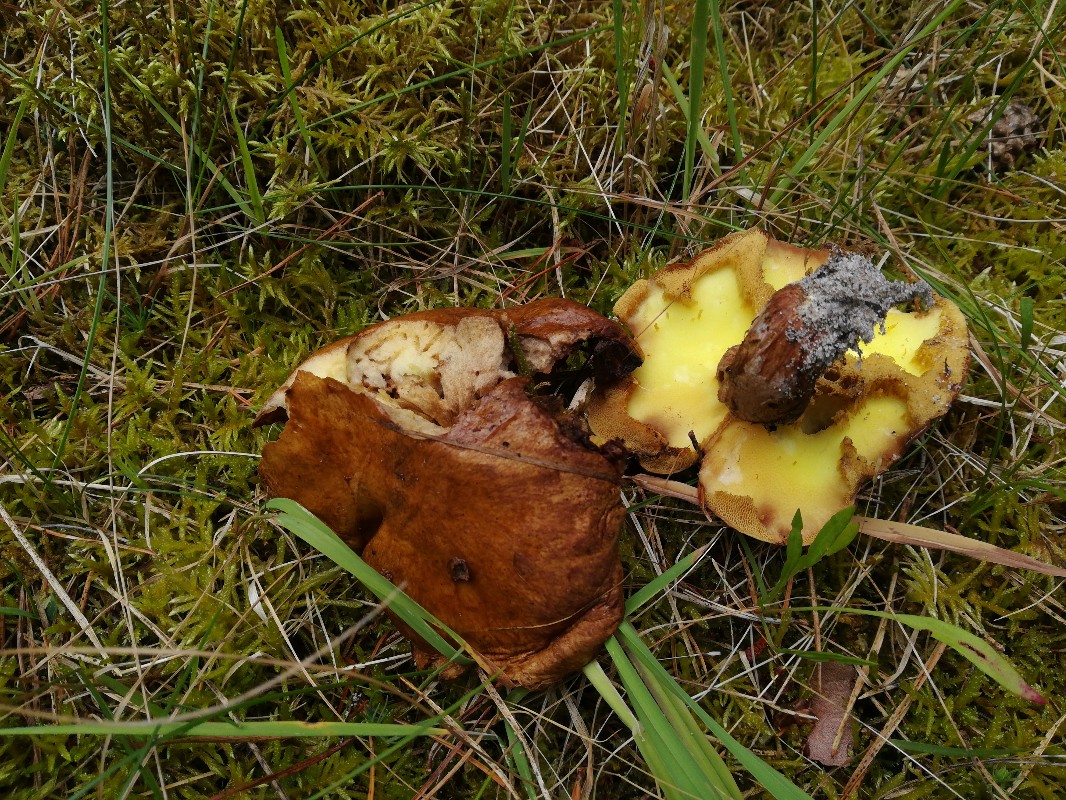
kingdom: Fungi
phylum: Basidiomycota
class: Agaricomycetes
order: Boletales
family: Suillaceae
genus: Suillus
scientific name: Suillus grevillei
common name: Larch bolete
